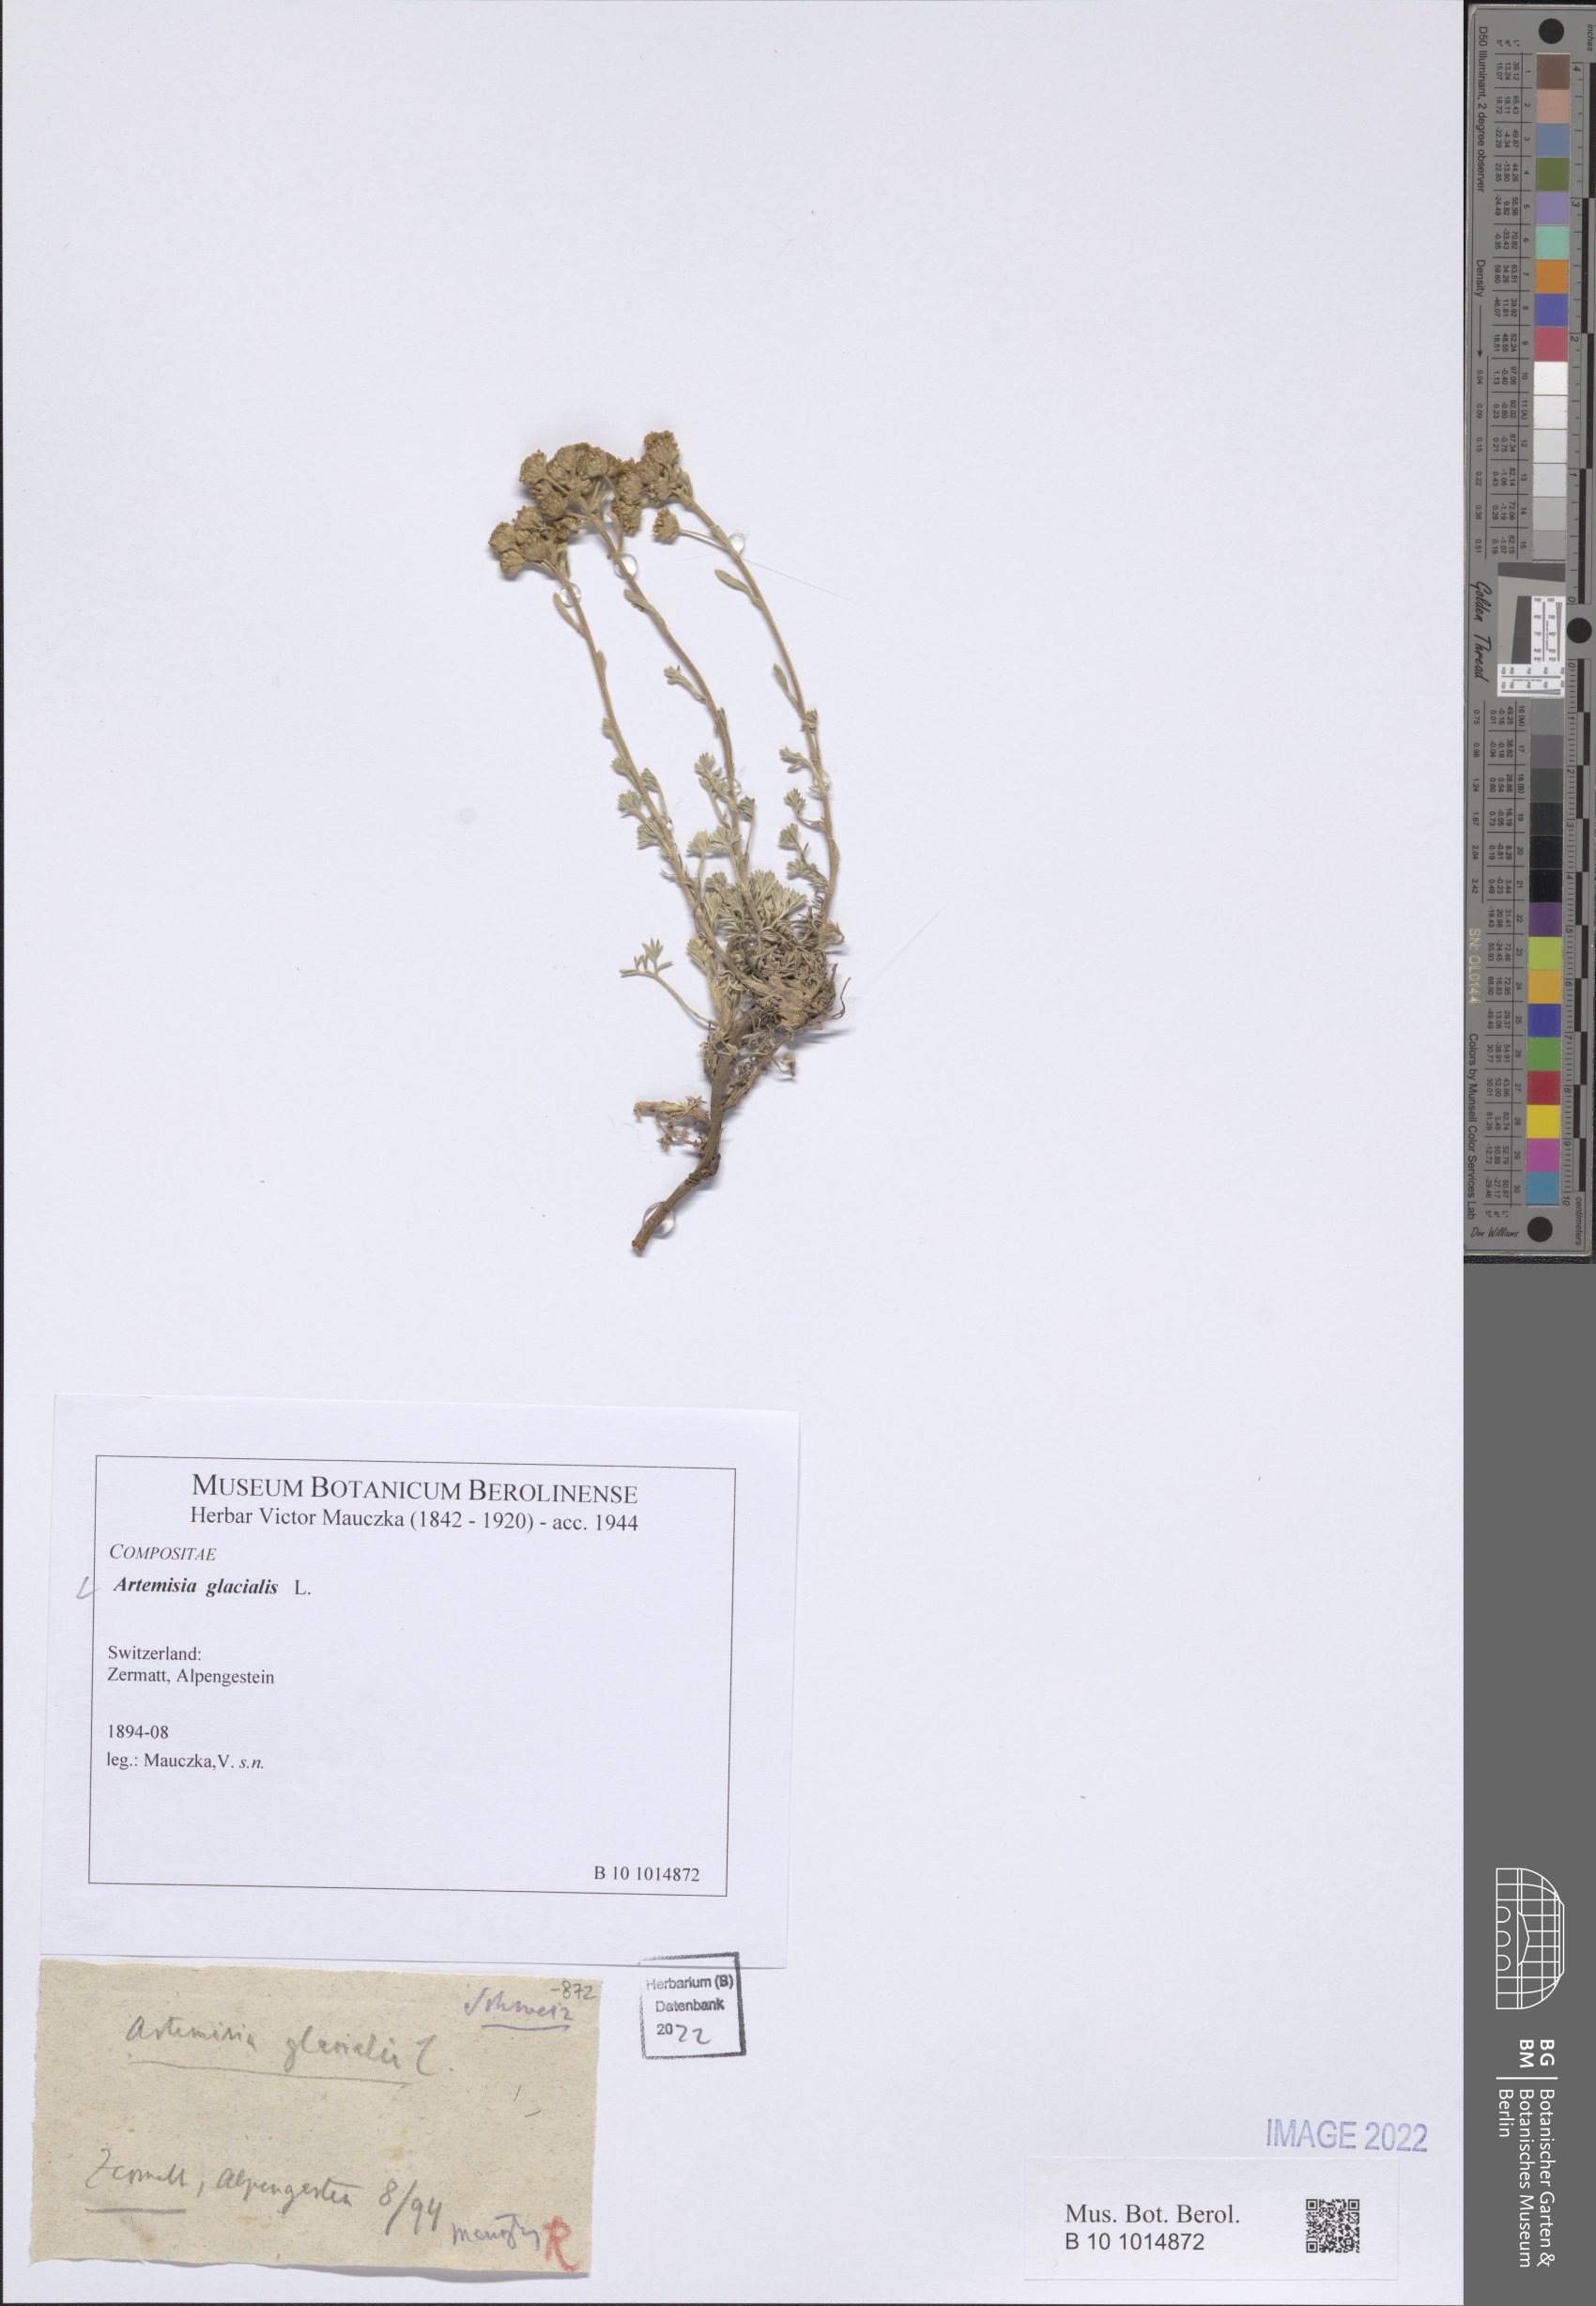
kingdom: Plantae
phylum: Tracheophyta
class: Magnoliopsida
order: Asterales
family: Asteraceae
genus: Artemisia
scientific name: Artemisia glacialis
